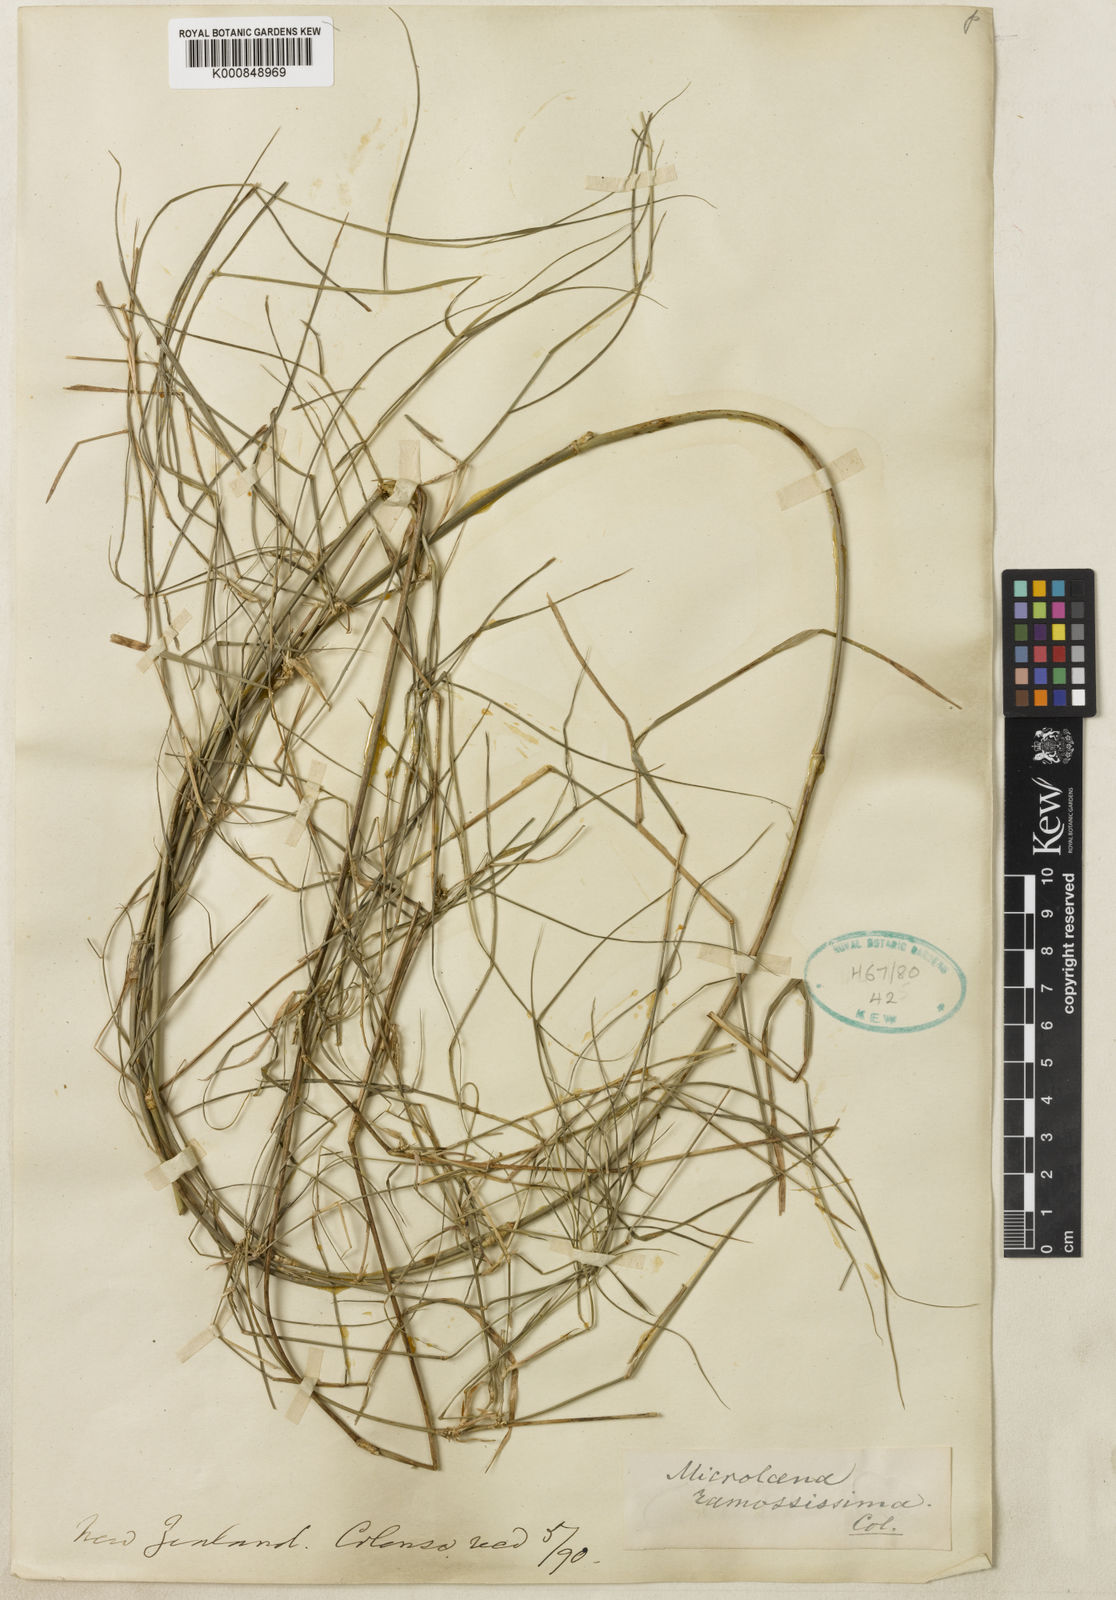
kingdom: Plantae
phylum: Tracheophyta
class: Liliopsida
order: Poales
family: Poaceae
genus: Ehrharta
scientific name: Ehrharta
